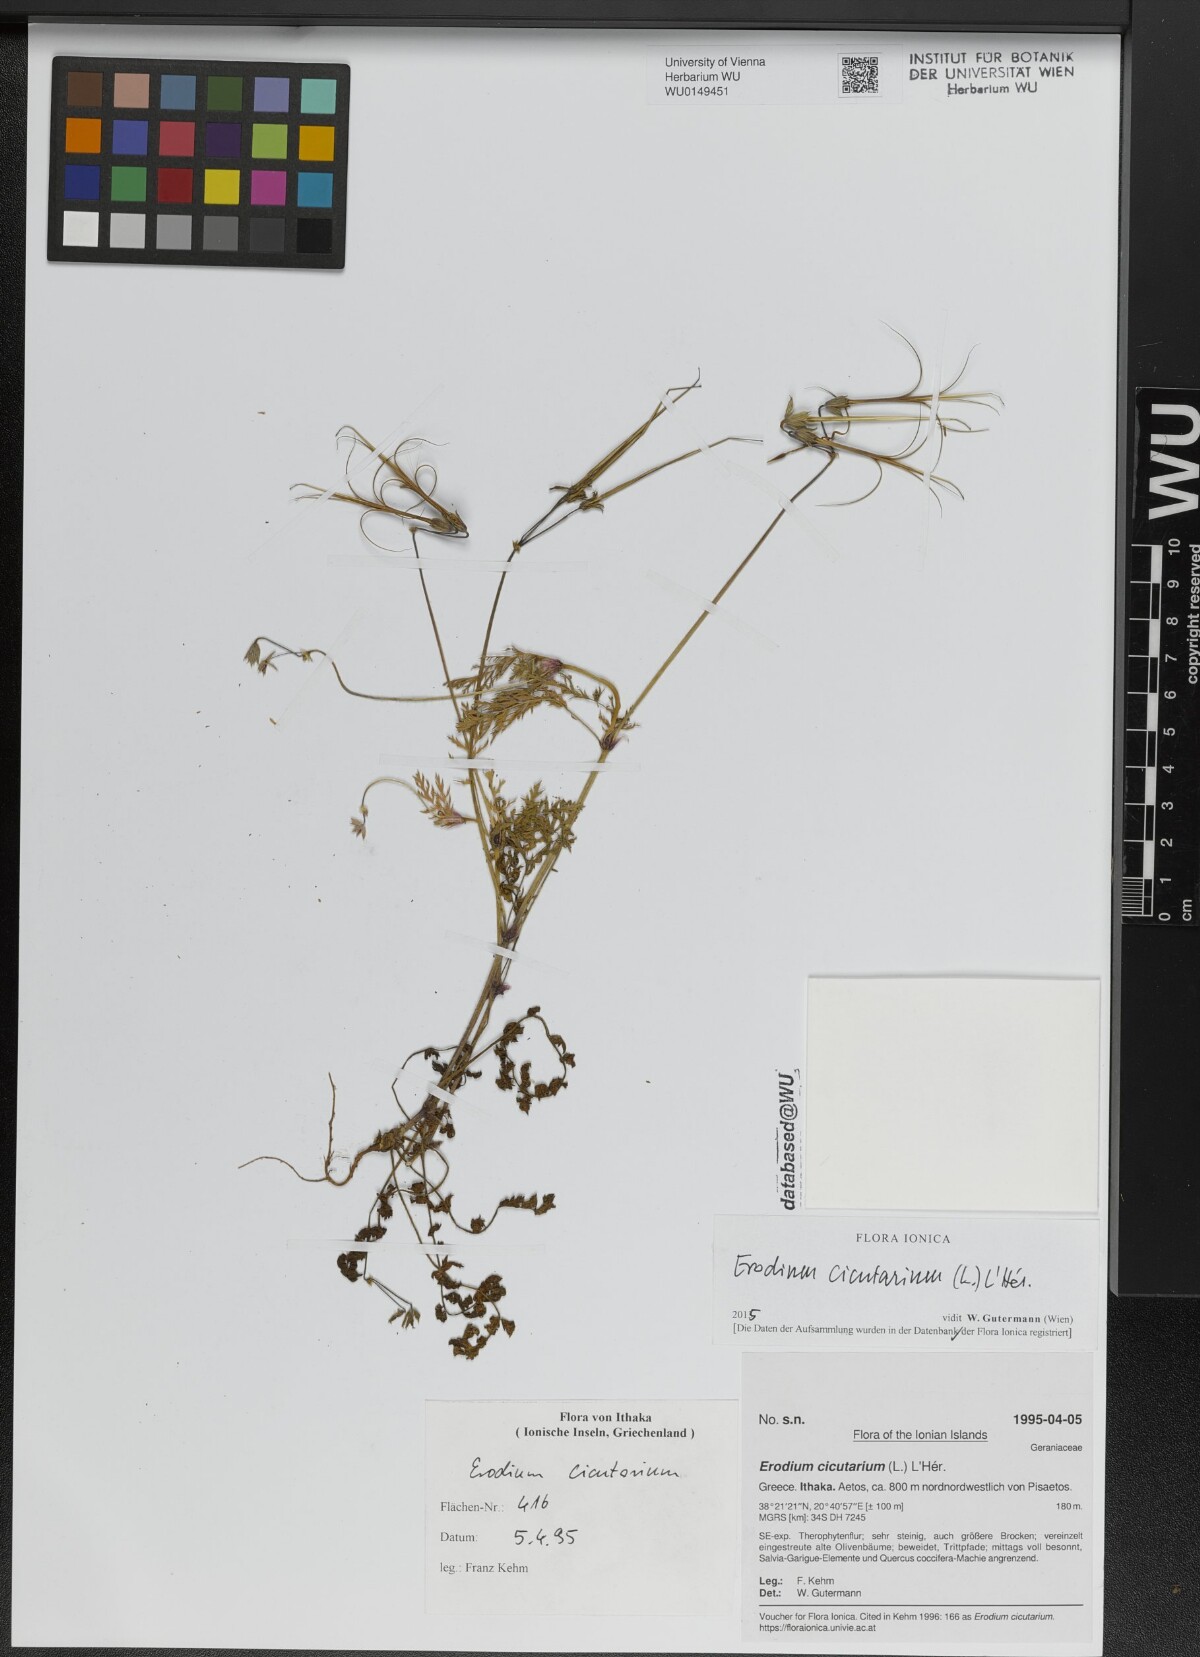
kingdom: Plantae
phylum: Tracheophyta
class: Magnoliopsida
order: Geraniales
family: Geraniaceae
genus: Erodium
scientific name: Erodium cicutarium
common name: Common stork's-bill
